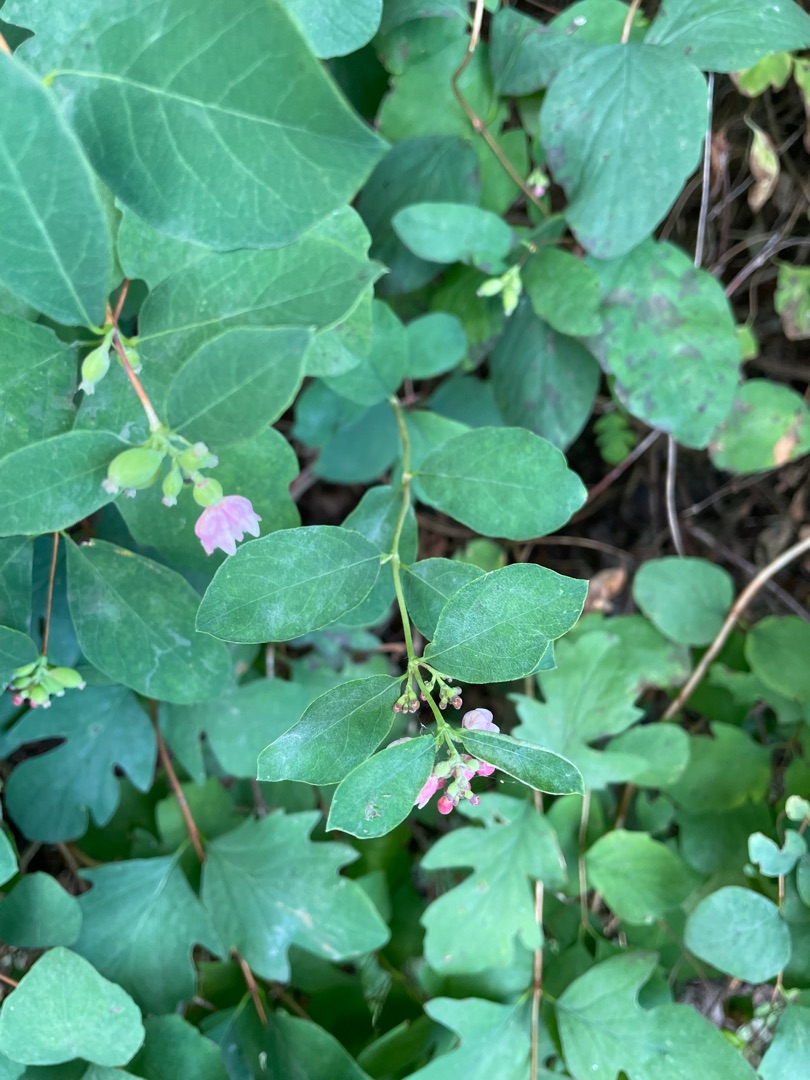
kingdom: Plantae
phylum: Tracheophyta
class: Magnoliopsida
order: Dipsacales
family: Caprifoliaceae
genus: Symphoricarpos
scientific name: Symphoricarpos albus
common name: Almindelig snebær
